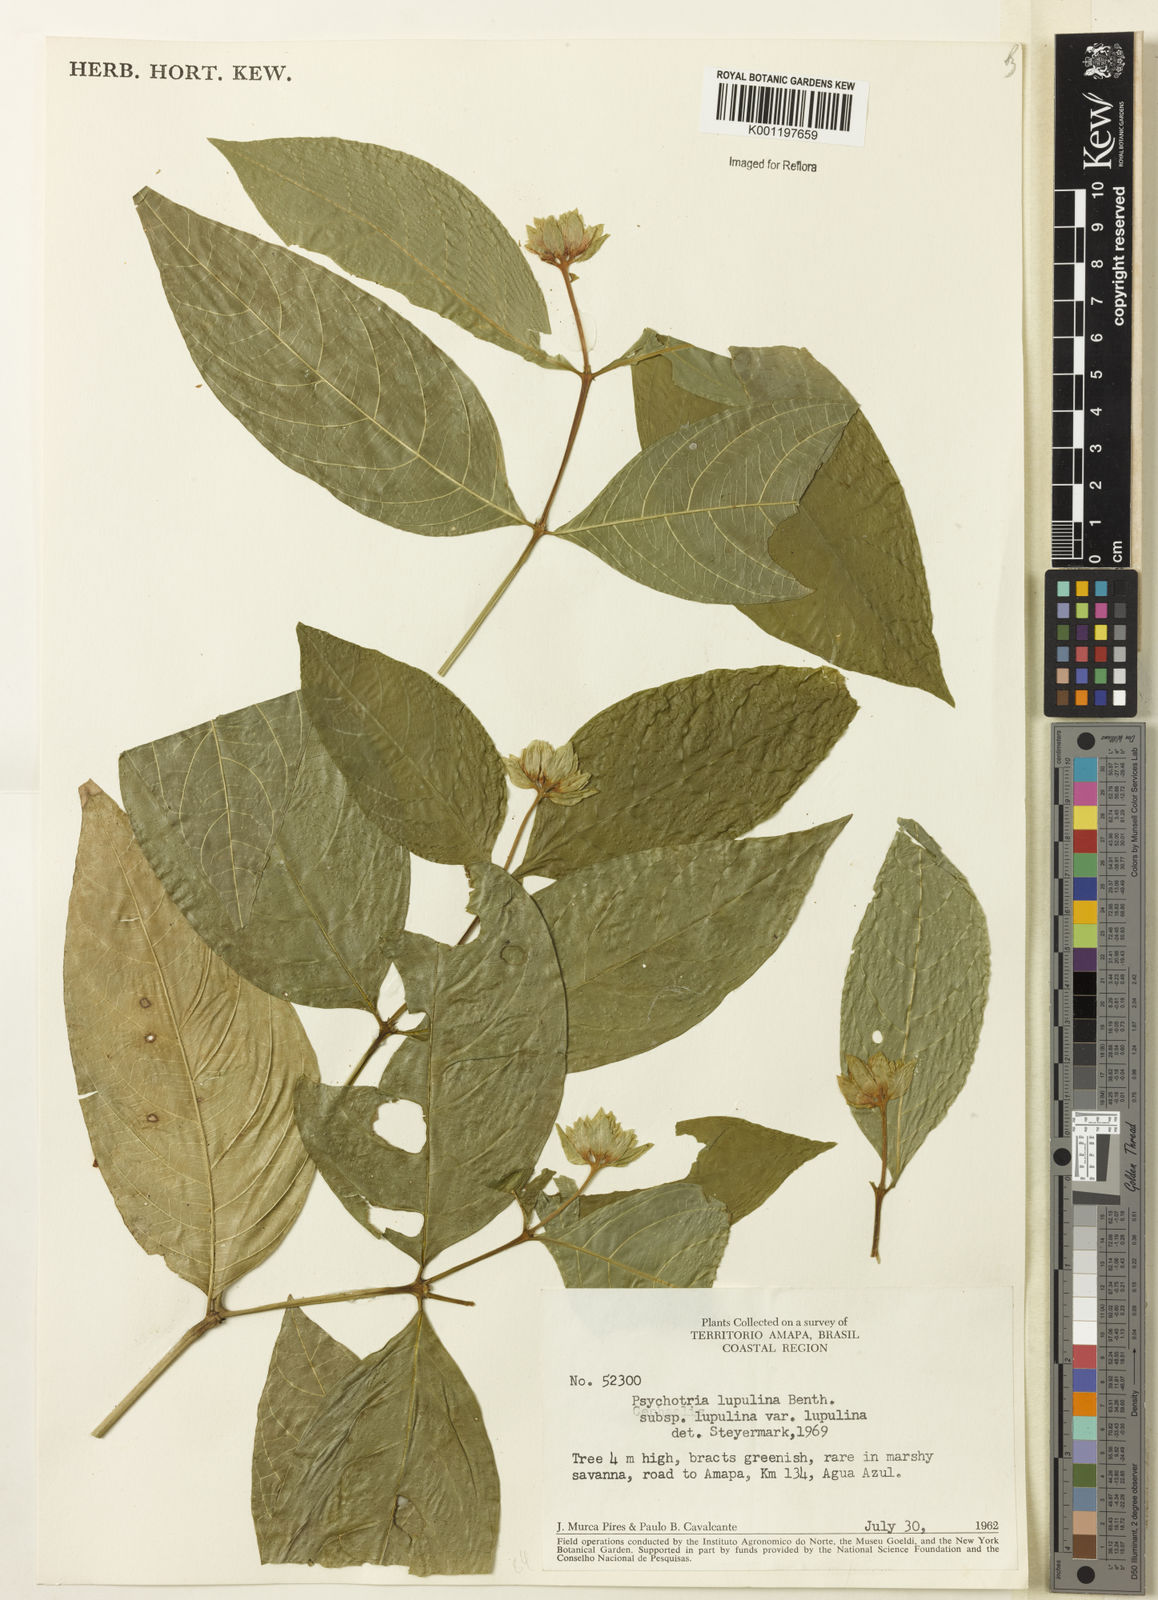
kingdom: Plantae
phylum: Tracheophyta
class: Magnoliopsida
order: Gentianales
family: Rubiaceae
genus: Palicourea
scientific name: Palicourea justiciifolia
